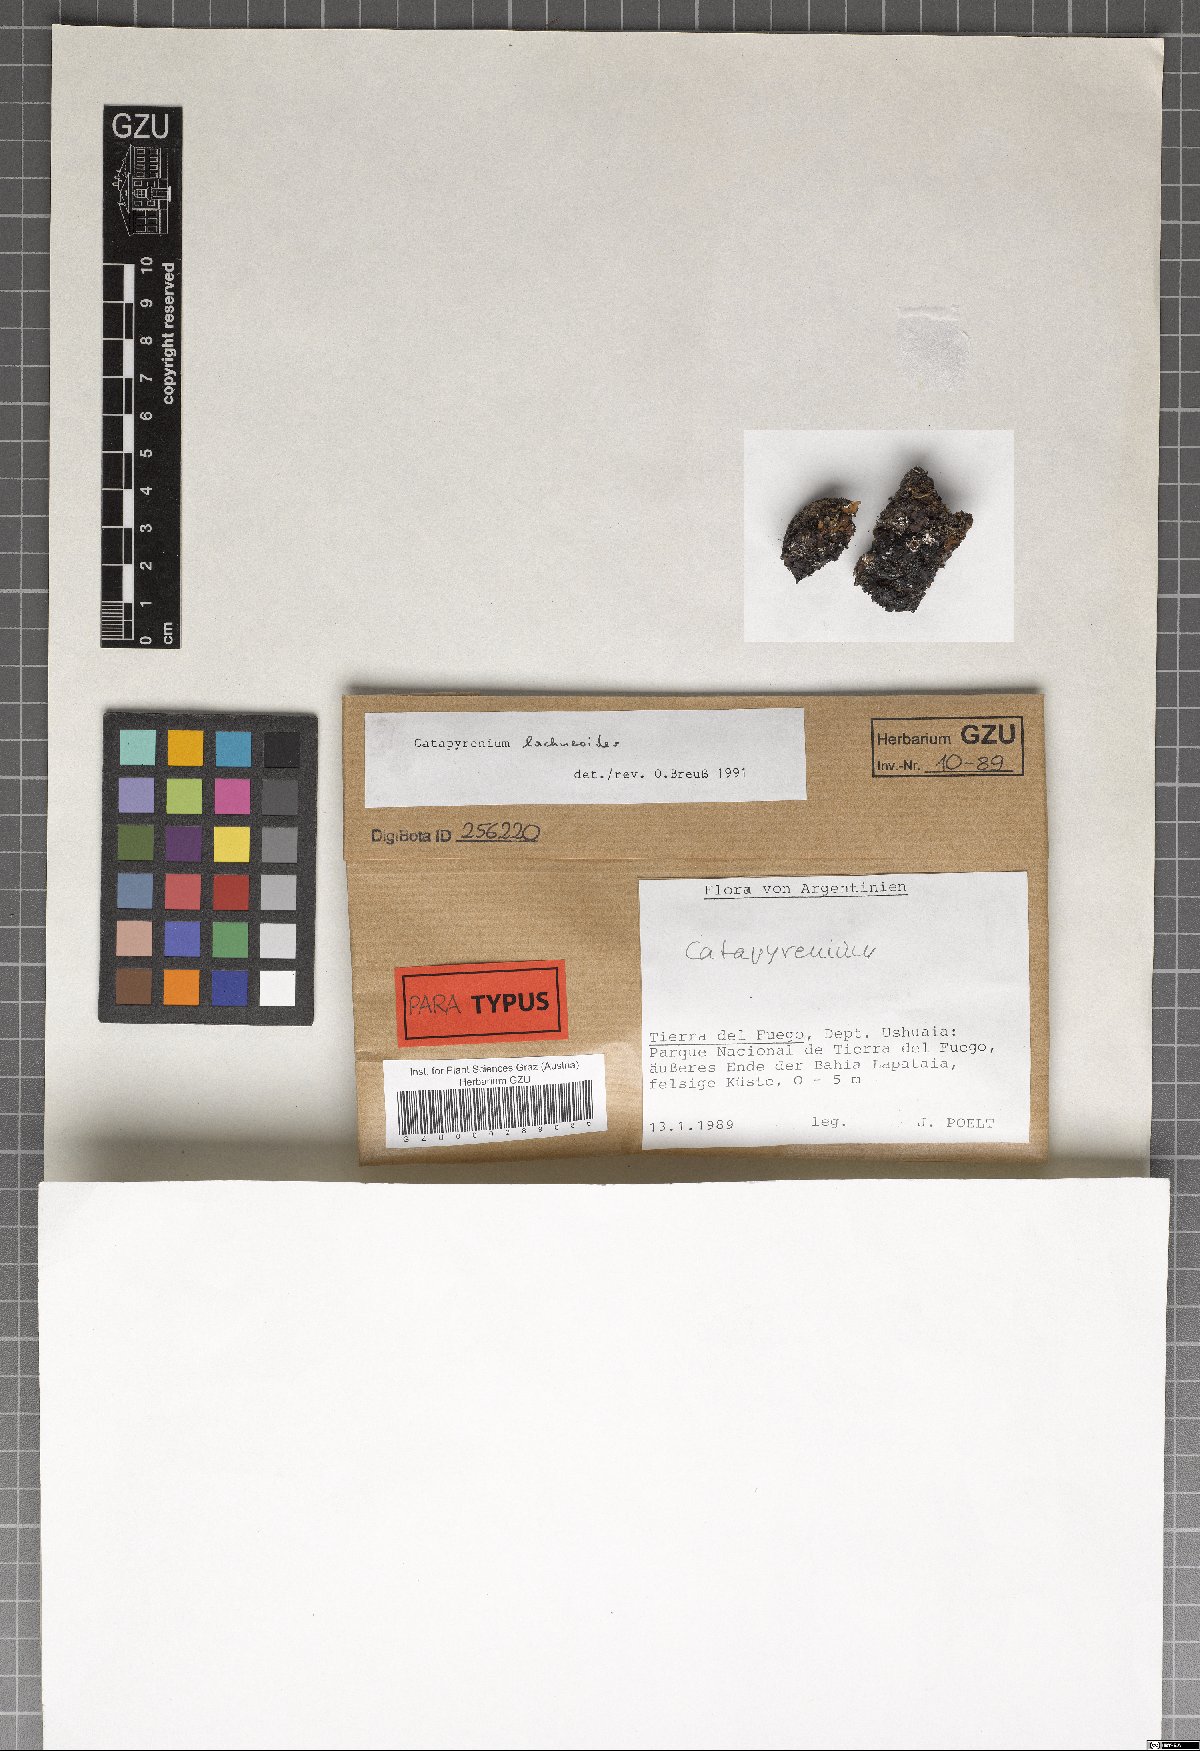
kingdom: Fungi
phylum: Ascomycota
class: Eurotiomycetes
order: Verrucariales
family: Verrucariaceae
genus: Catapyrenium
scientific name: Catapyrenium lachneoides
